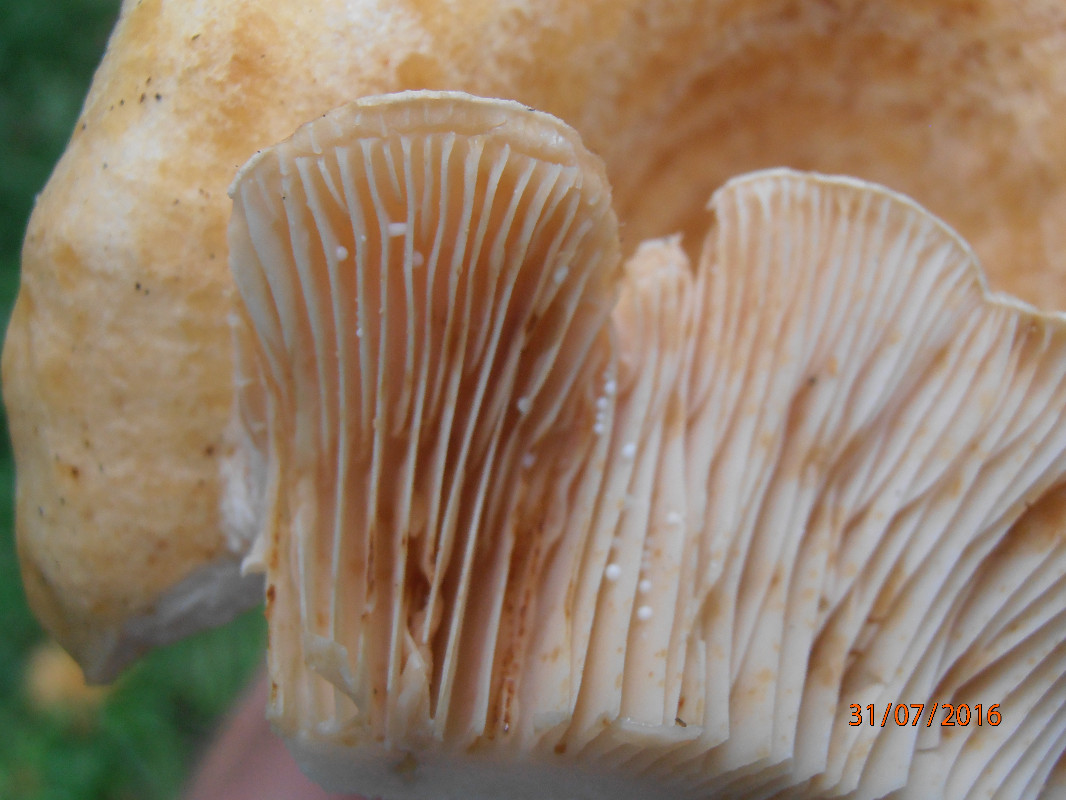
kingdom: Fungi
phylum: Basidiomycota
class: Agaricomycetes
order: Russulales
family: Russulaceae
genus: Lactarius
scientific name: Lactarius acerrimus
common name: brændende mælkehat
